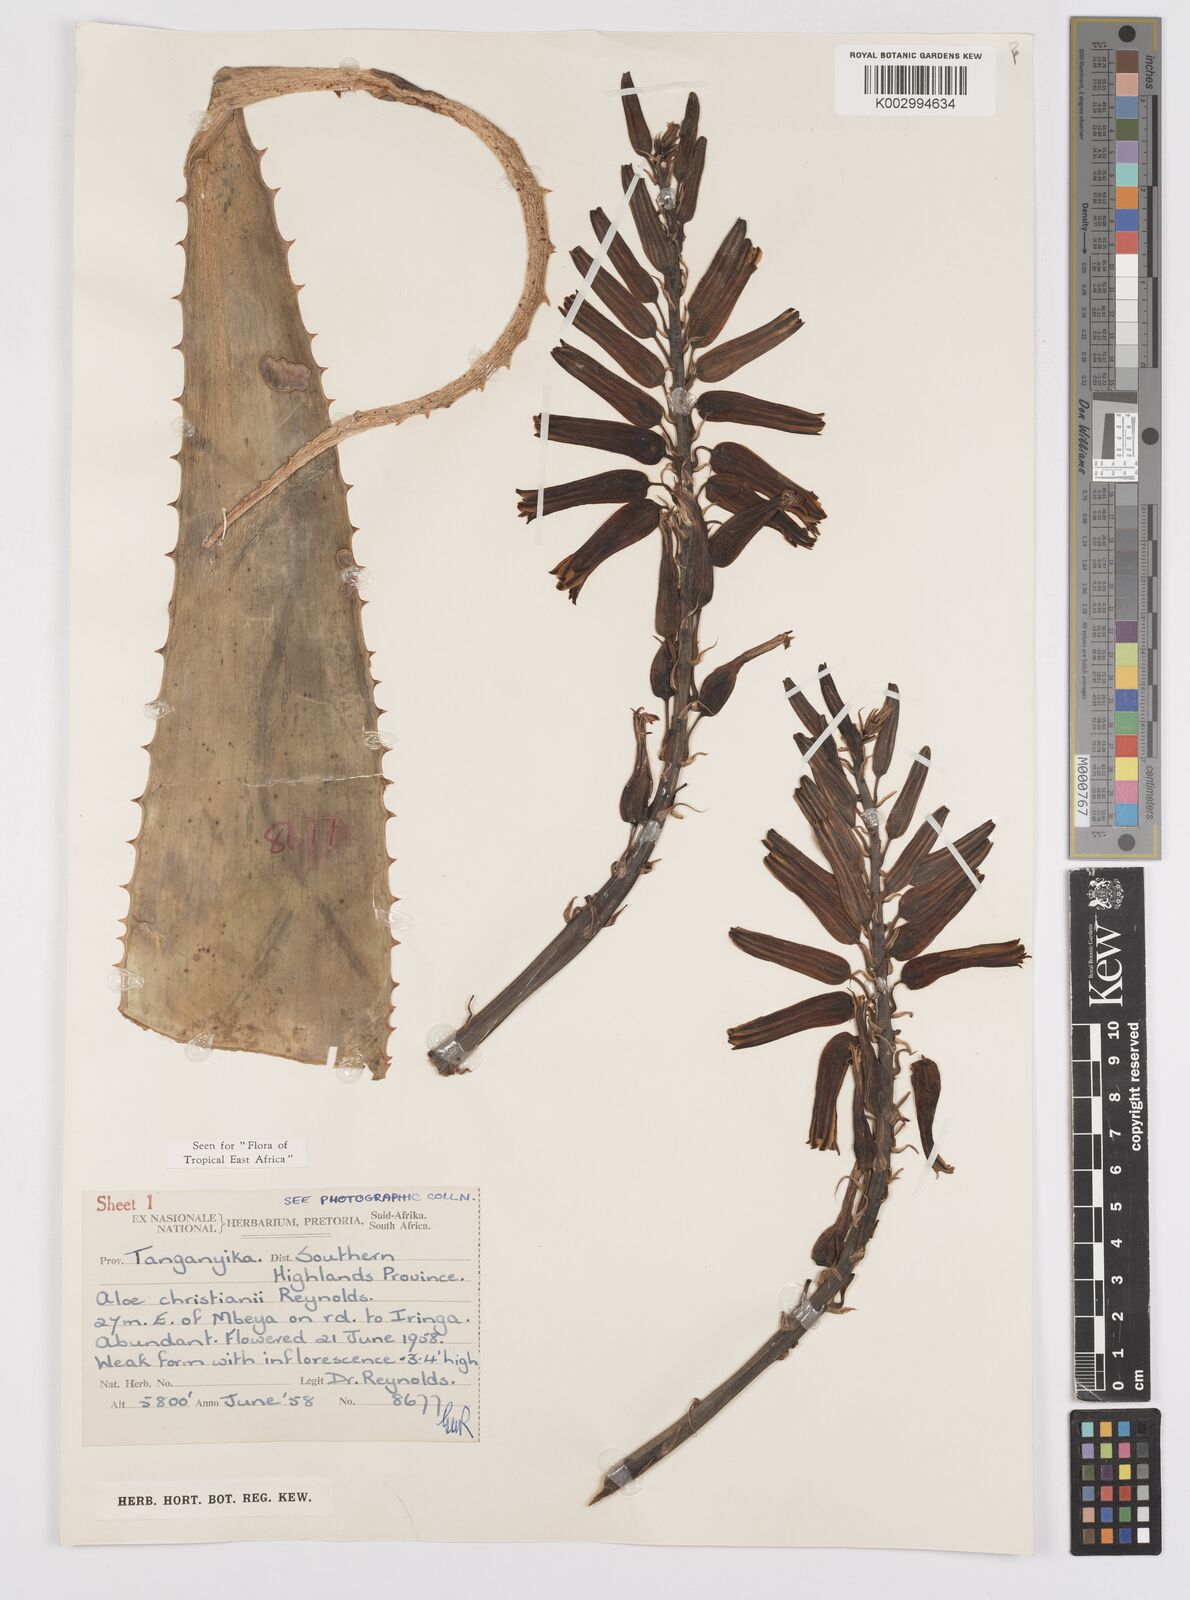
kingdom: Plantae
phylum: Tracheophyta
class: Liliopsida
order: Asparagales
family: Asphodelaceae
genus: Aloe
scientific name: Aloe christianii
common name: Basil christian's aloe
